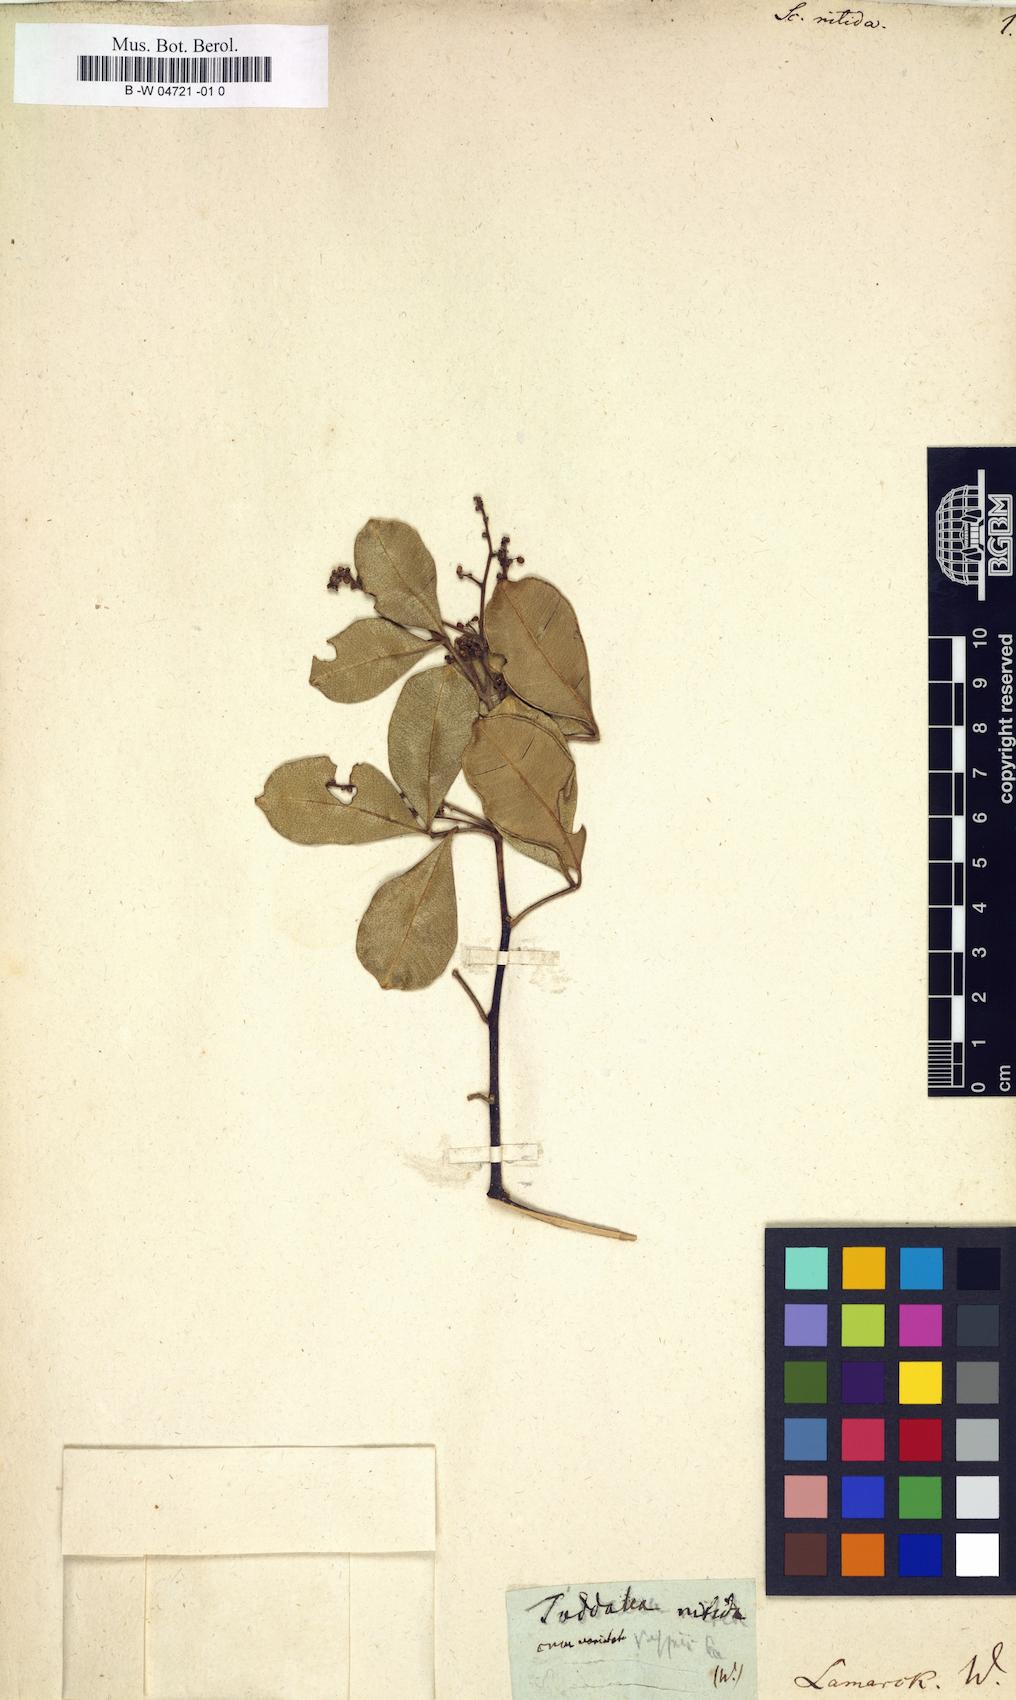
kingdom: Plantae
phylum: Tracheophyta
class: Magnoliopsida
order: Sapindales
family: Rutaceae
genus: Zanthoxylum
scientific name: Zanthoxylum asiaticum
